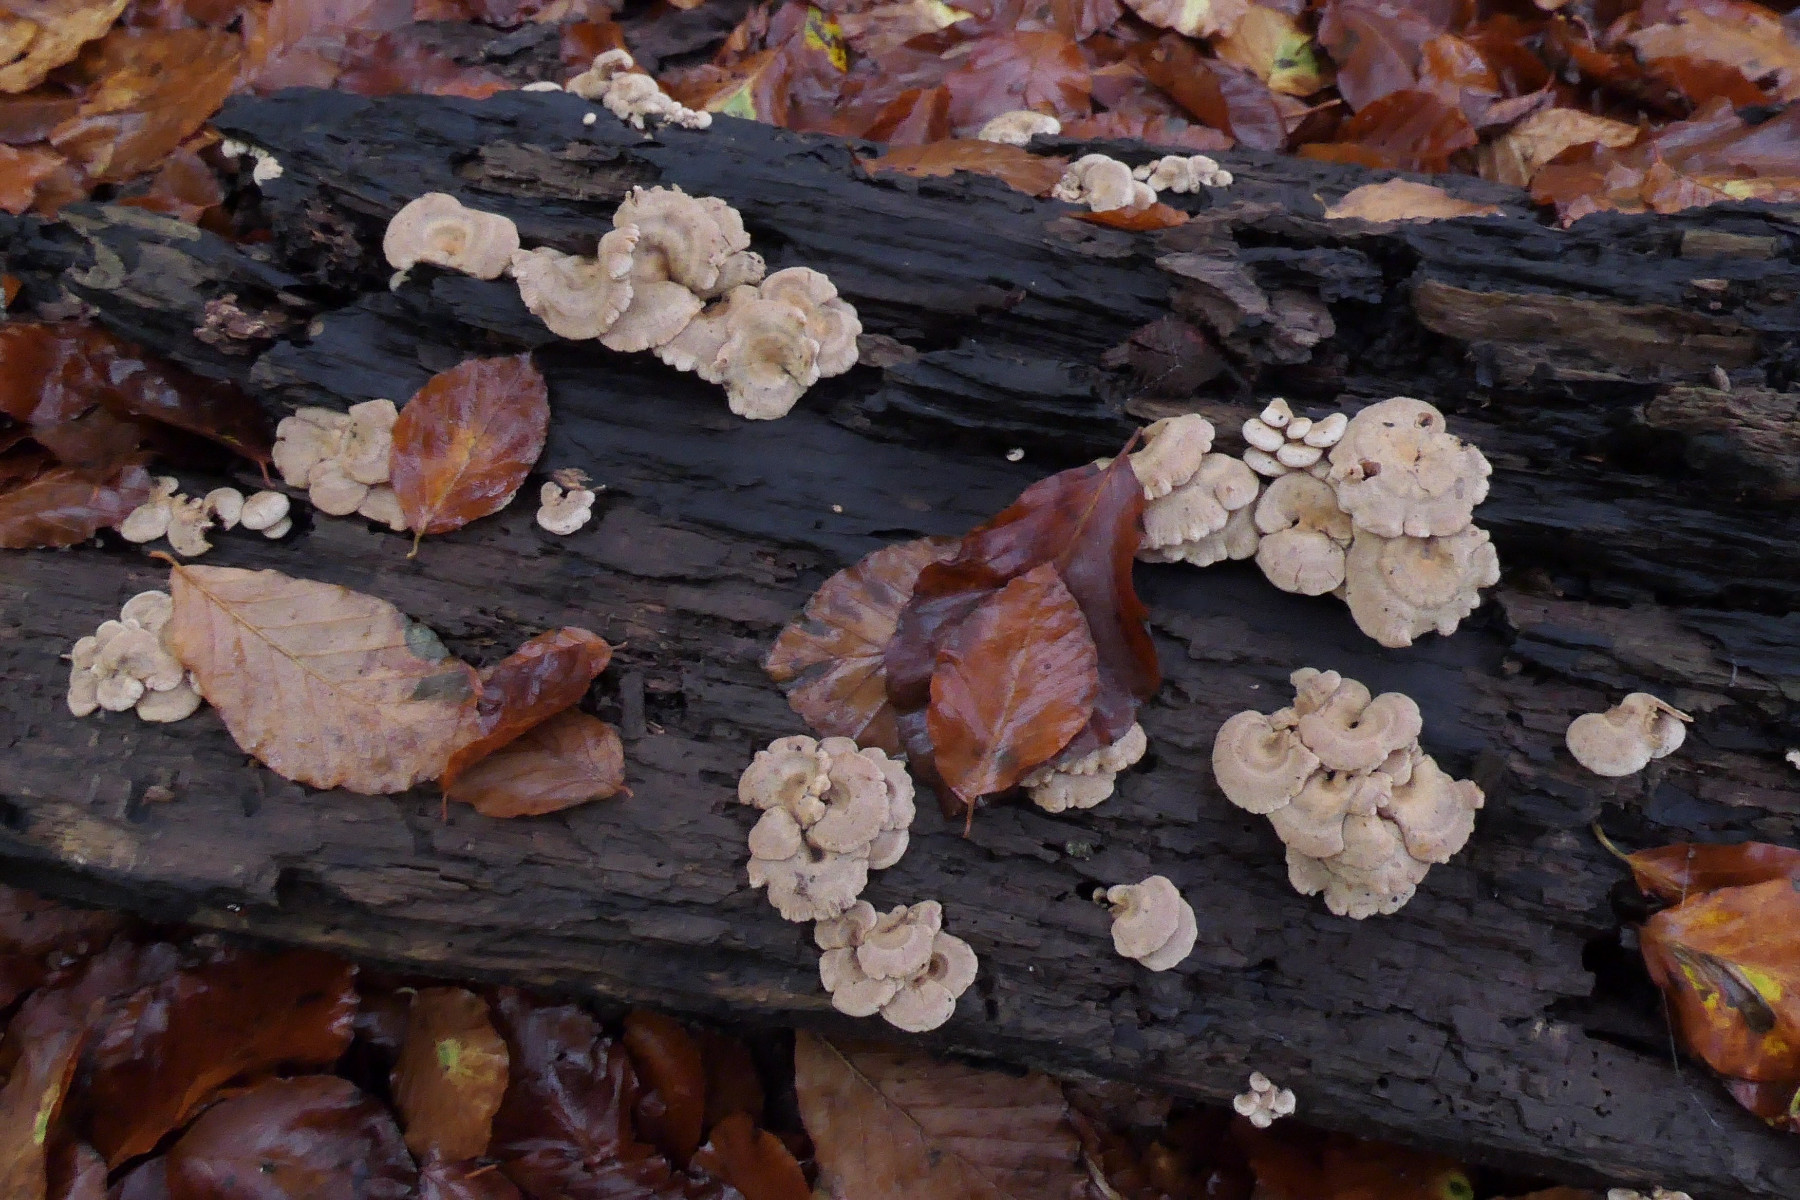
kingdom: Fungi
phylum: Basidiomycota
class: Agaricomycetes
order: Agaricales
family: Mycenaceae
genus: Panellus
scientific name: Panellus stipticus
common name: kliddet epaulethat
